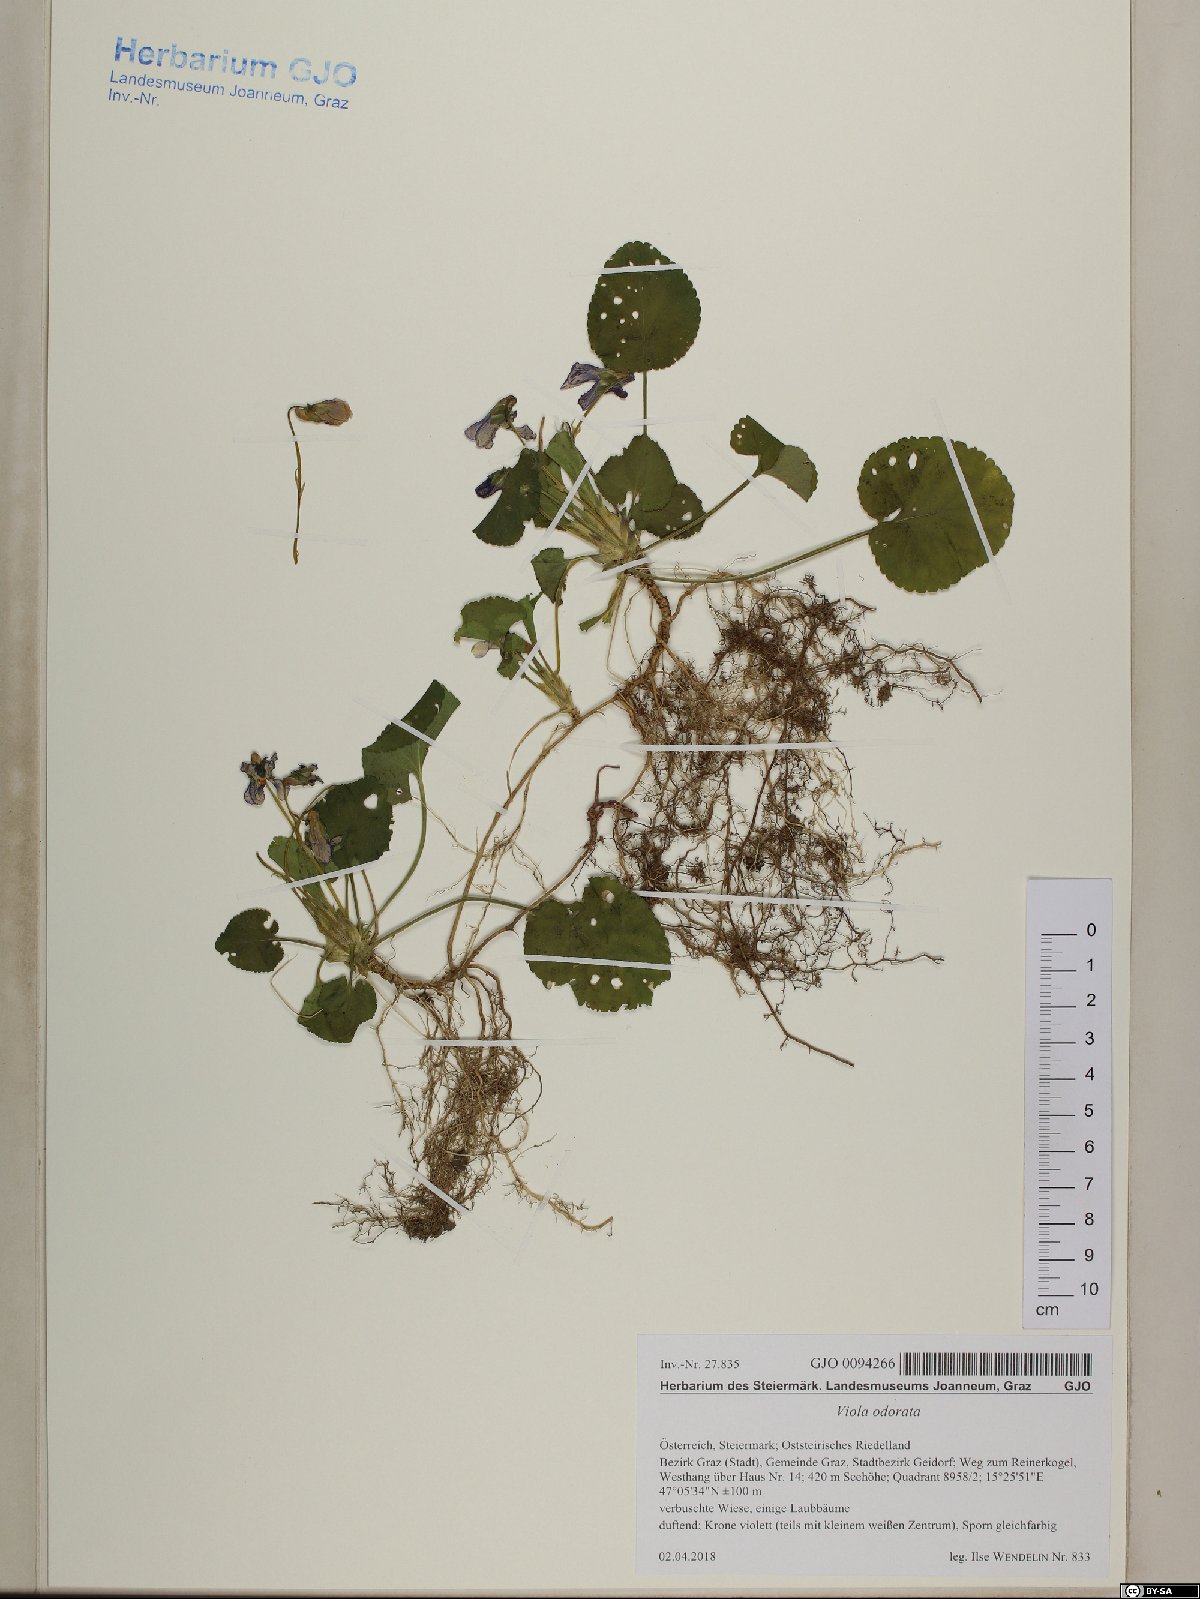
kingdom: Plantae
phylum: Tracheophyta
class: Magnoliopsida
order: Malpighiales
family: Violaceae
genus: Viola
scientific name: Viola odorata
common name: Sweet violet
